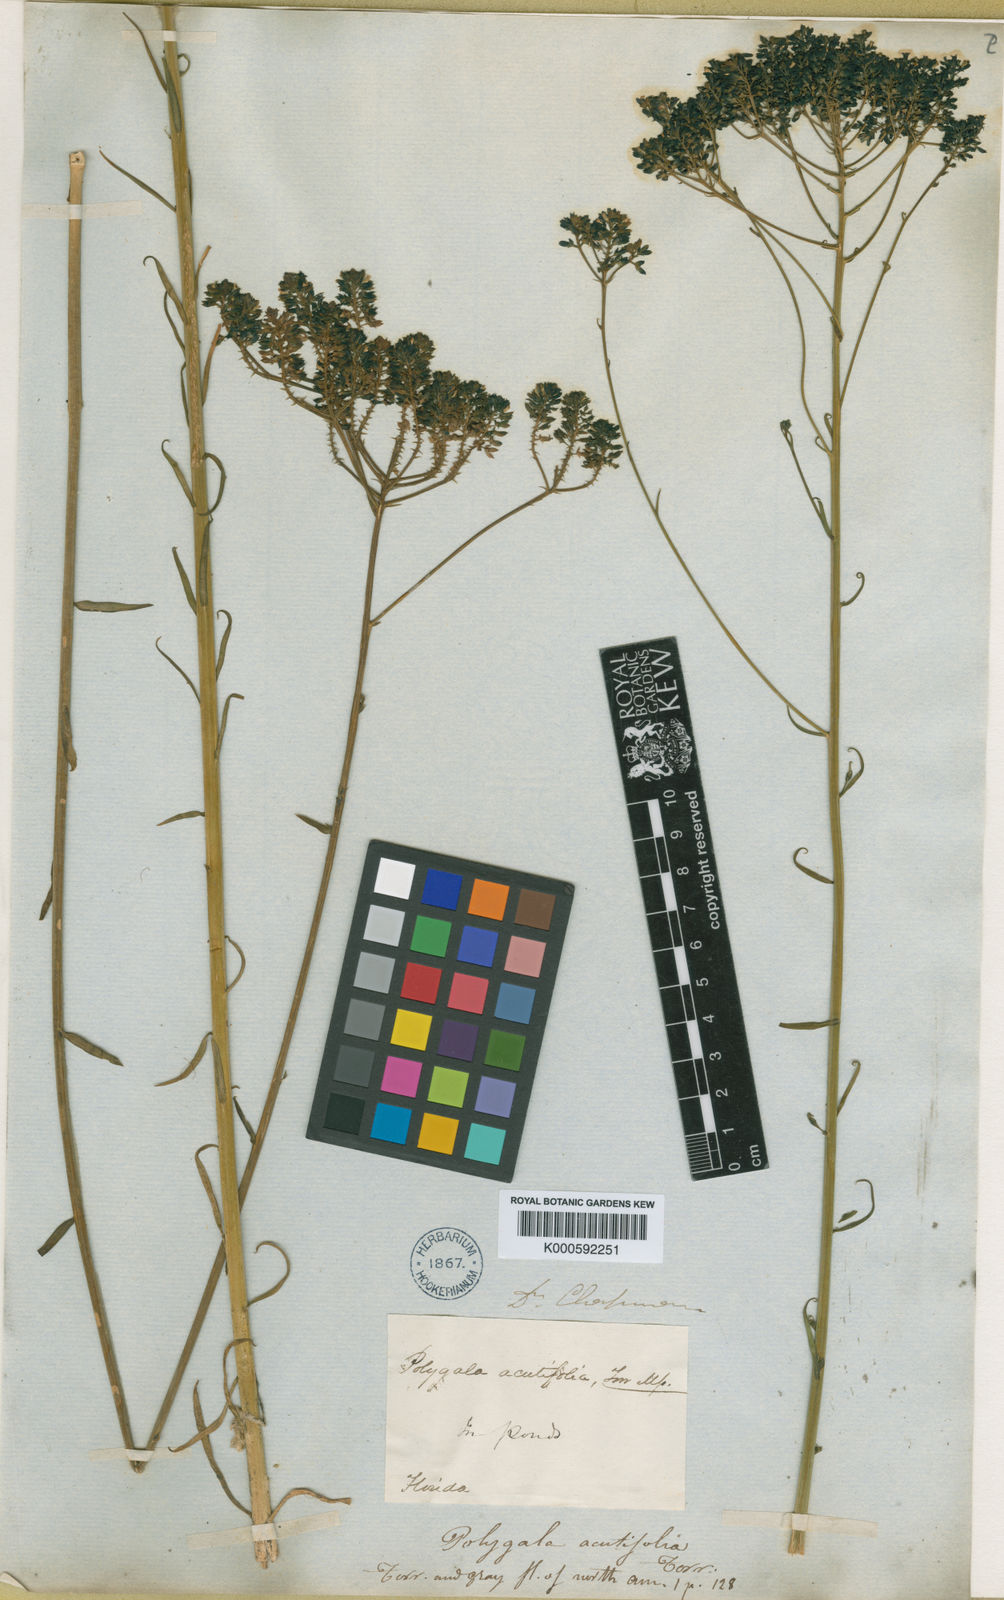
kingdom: Plantae
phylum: Tracheophyta
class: Magnoliopsida
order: Fabales
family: Polygalaceae
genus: Polygala
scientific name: Polygala cymosa
